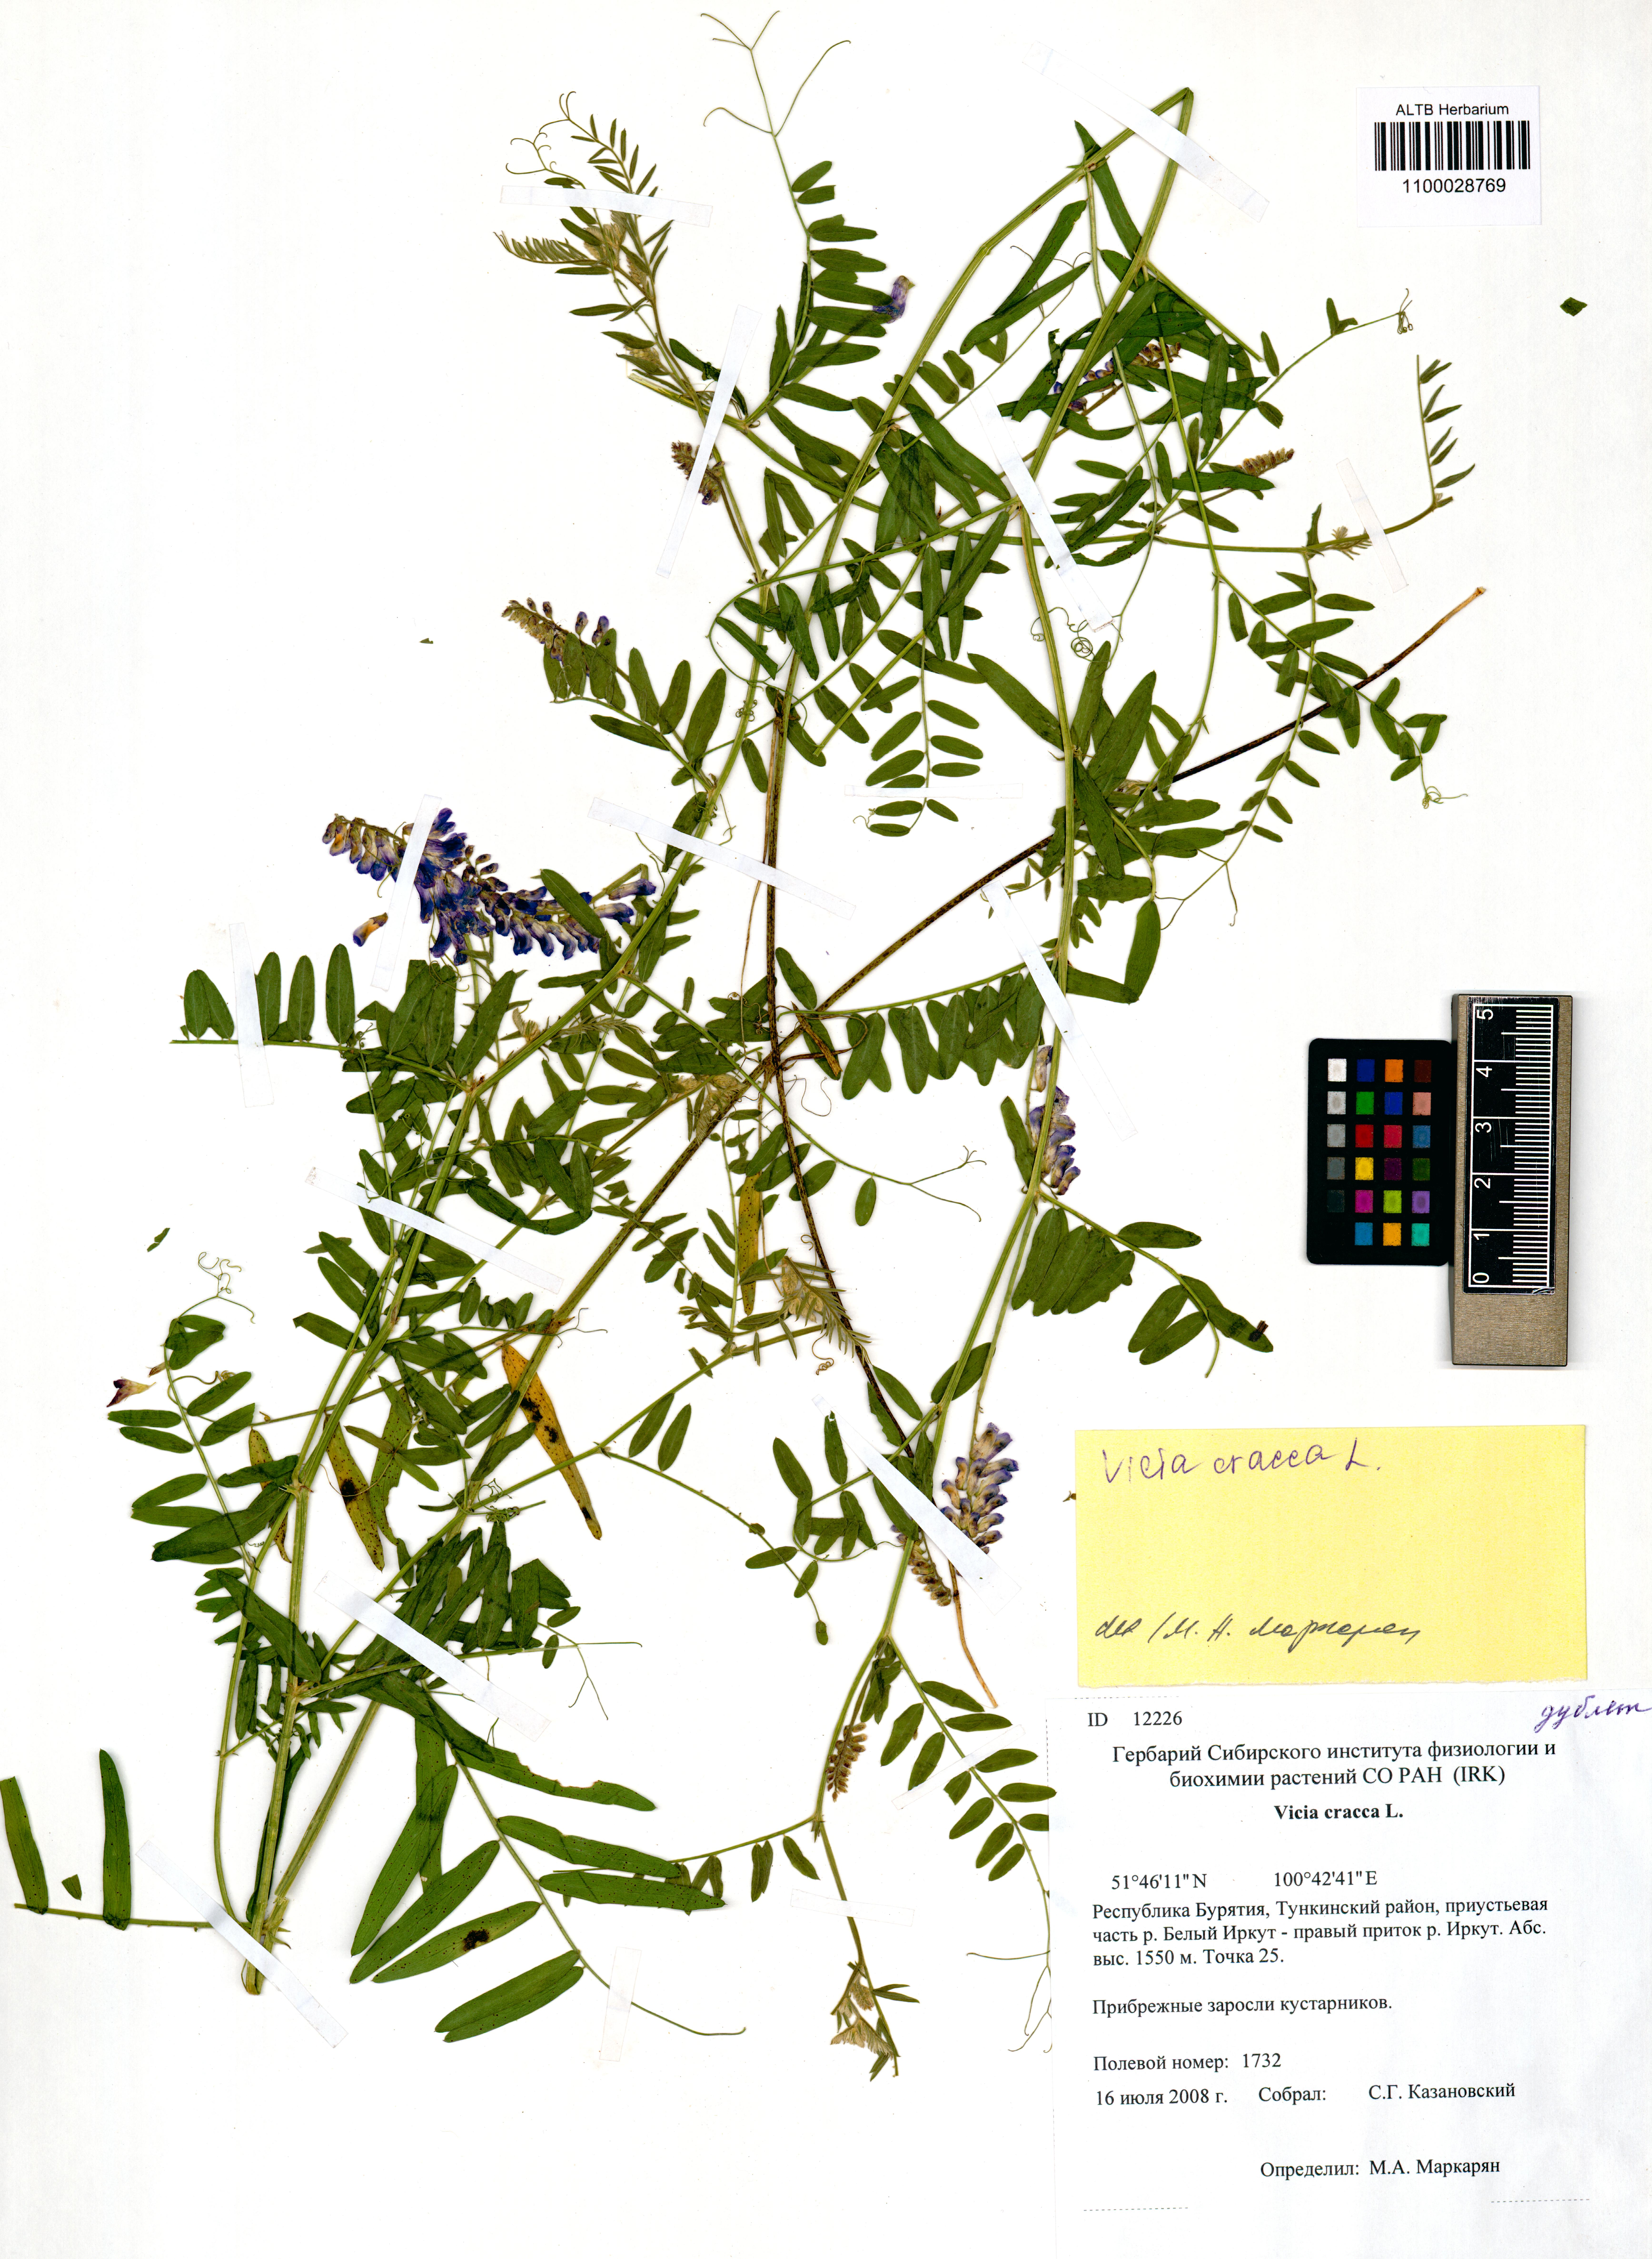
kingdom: Plantae
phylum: Tracheophyta
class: Magnoliopsida
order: Fabales
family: Fabaceae
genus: Vicia
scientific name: Vicia cracca
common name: Bird vetch
